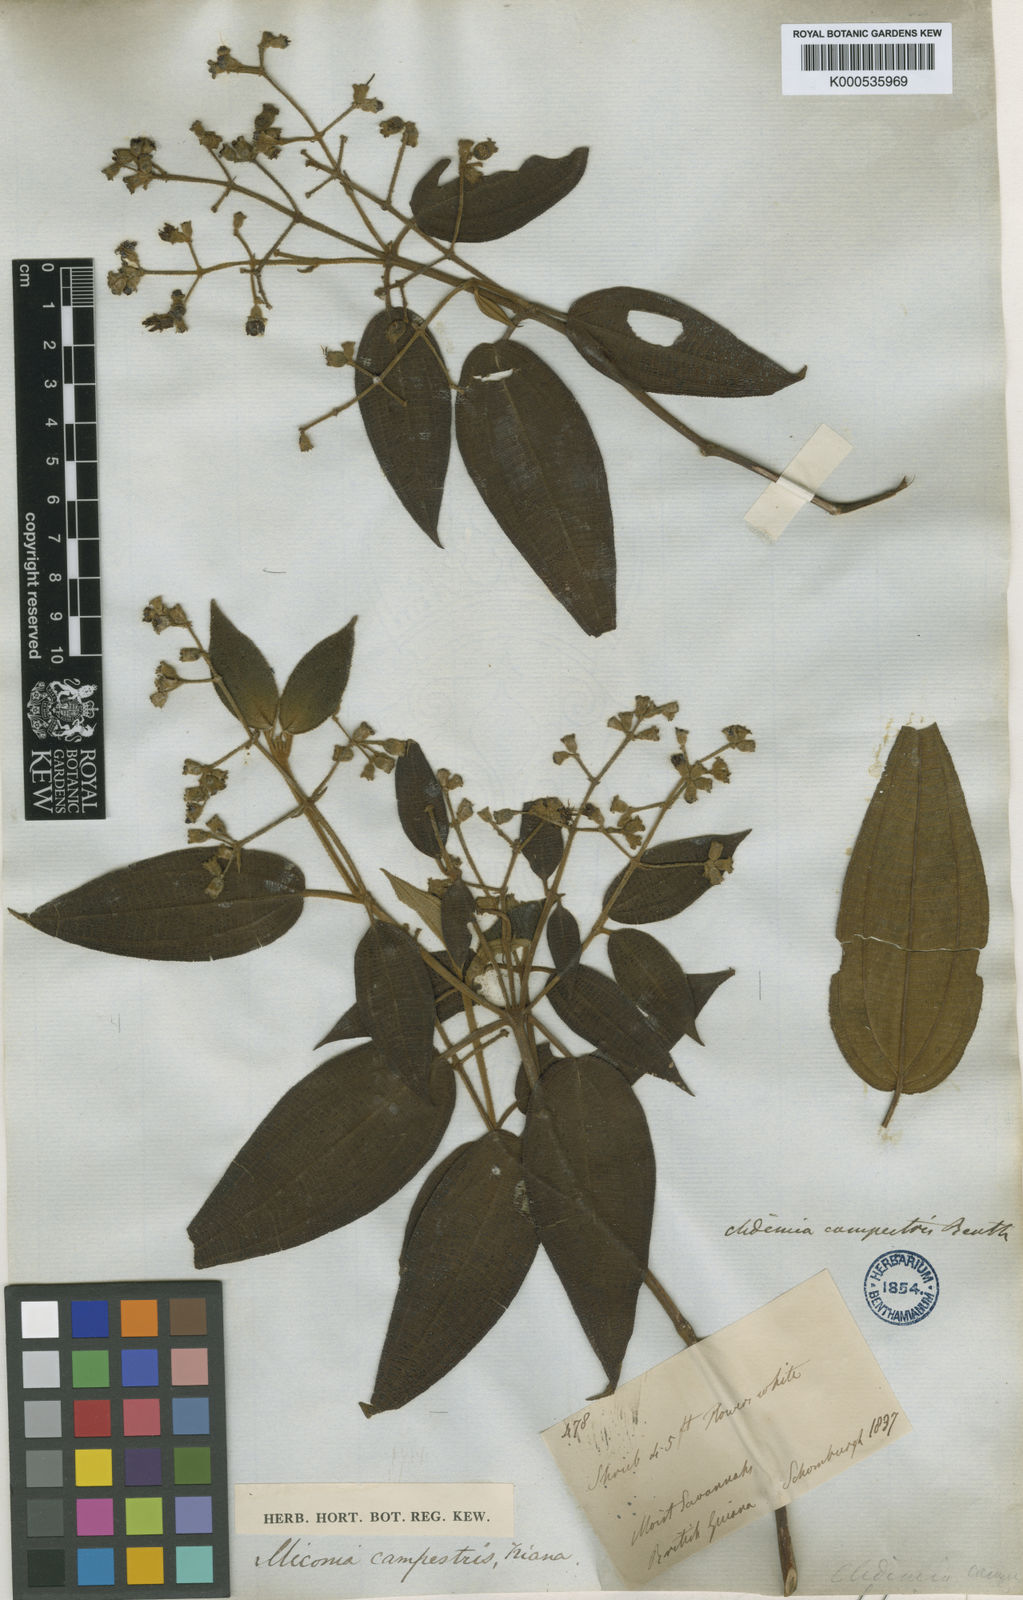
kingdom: Plantae
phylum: Tracheophyta
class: Magnoliopsida
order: Myrtales
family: Melastomataceae
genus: Miconia
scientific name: Miconia campestris
